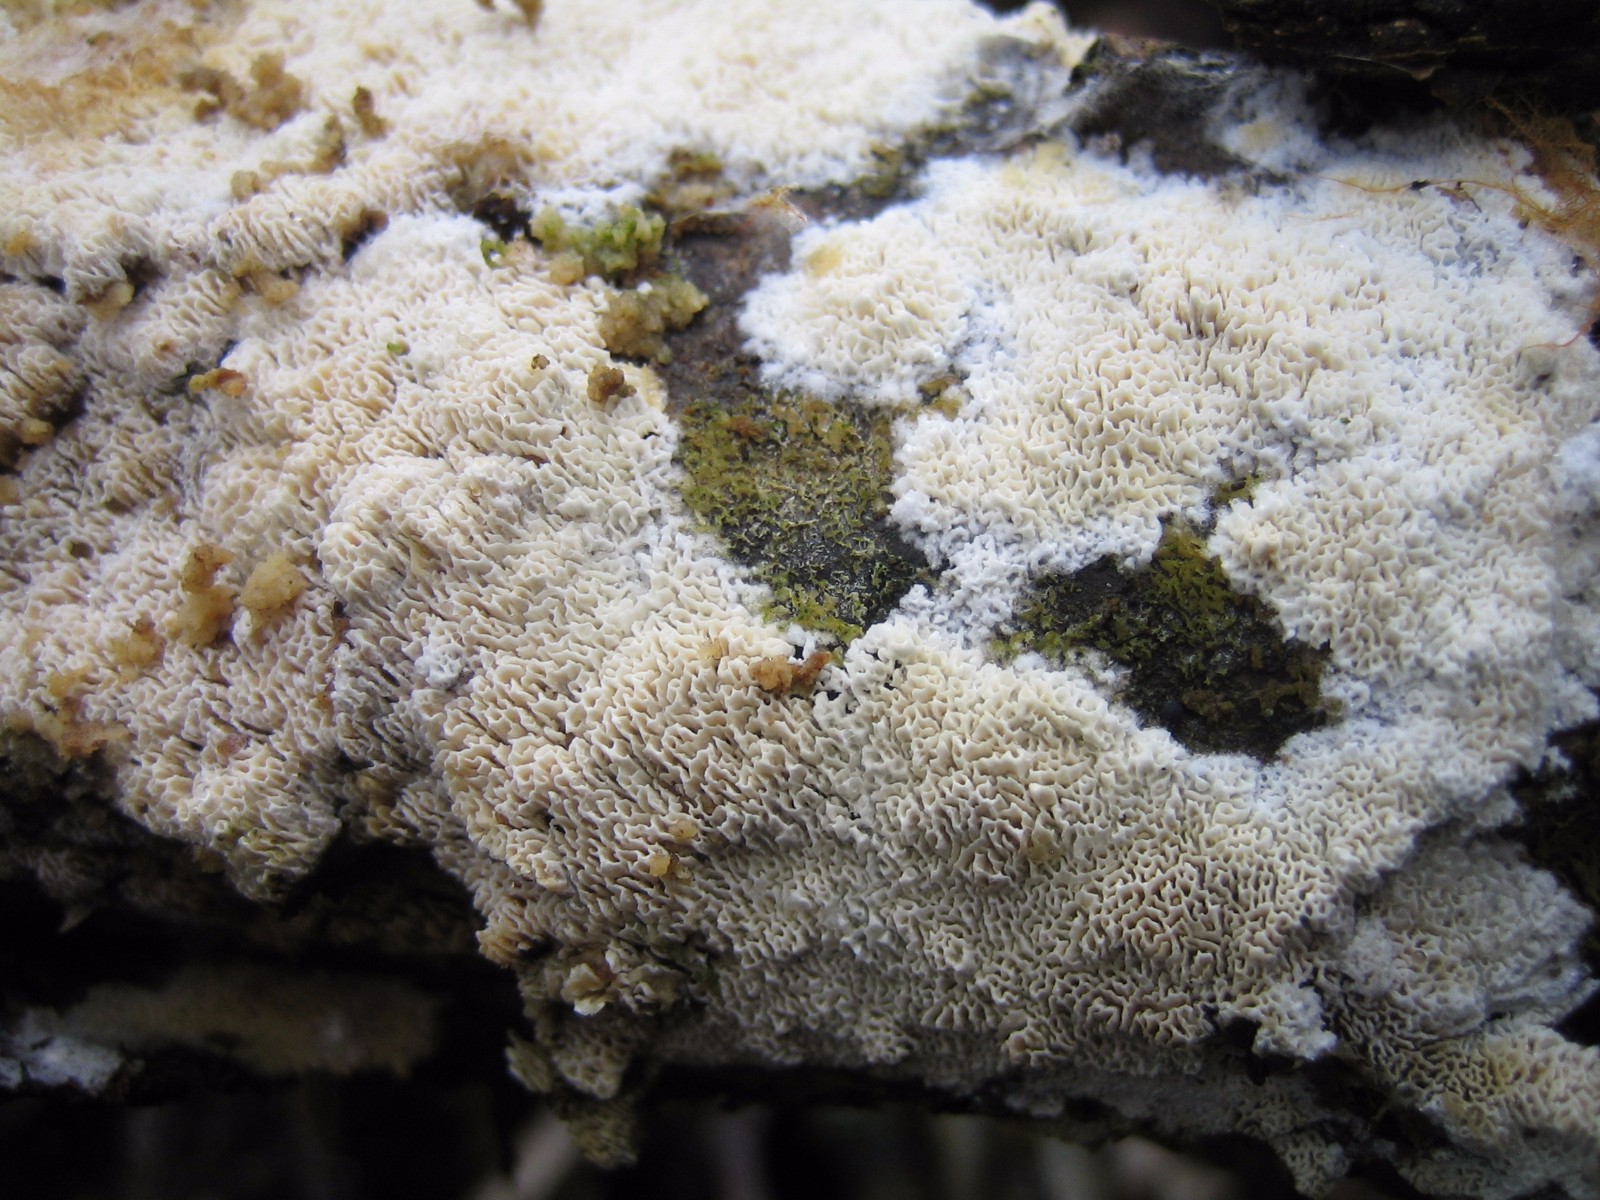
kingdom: Fungi
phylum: Basidiomycota
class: Agaricomycetes
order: Hymenochaetales
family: Schizoporaceae
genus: Xylodon
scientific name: Xylodon
